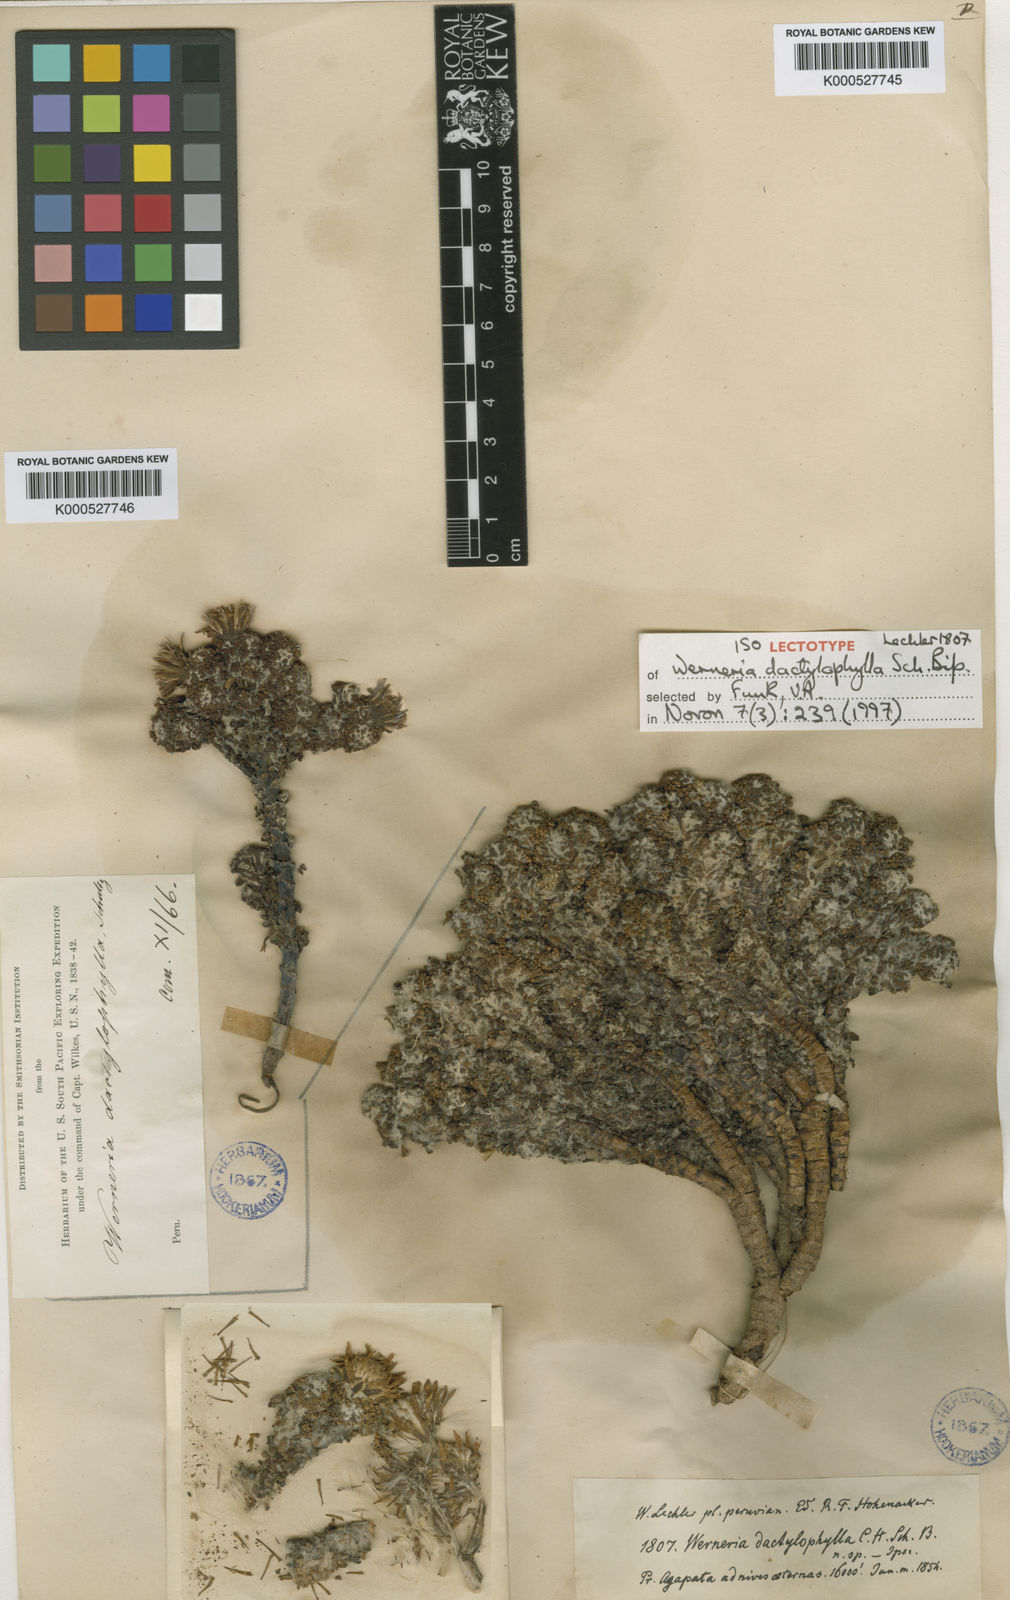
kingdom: Plantae
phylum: Tracheophyta
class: Magnoliopsida
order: Asterales
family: Asteraceae
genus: Werneria
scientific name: Werneria dactylophylla
